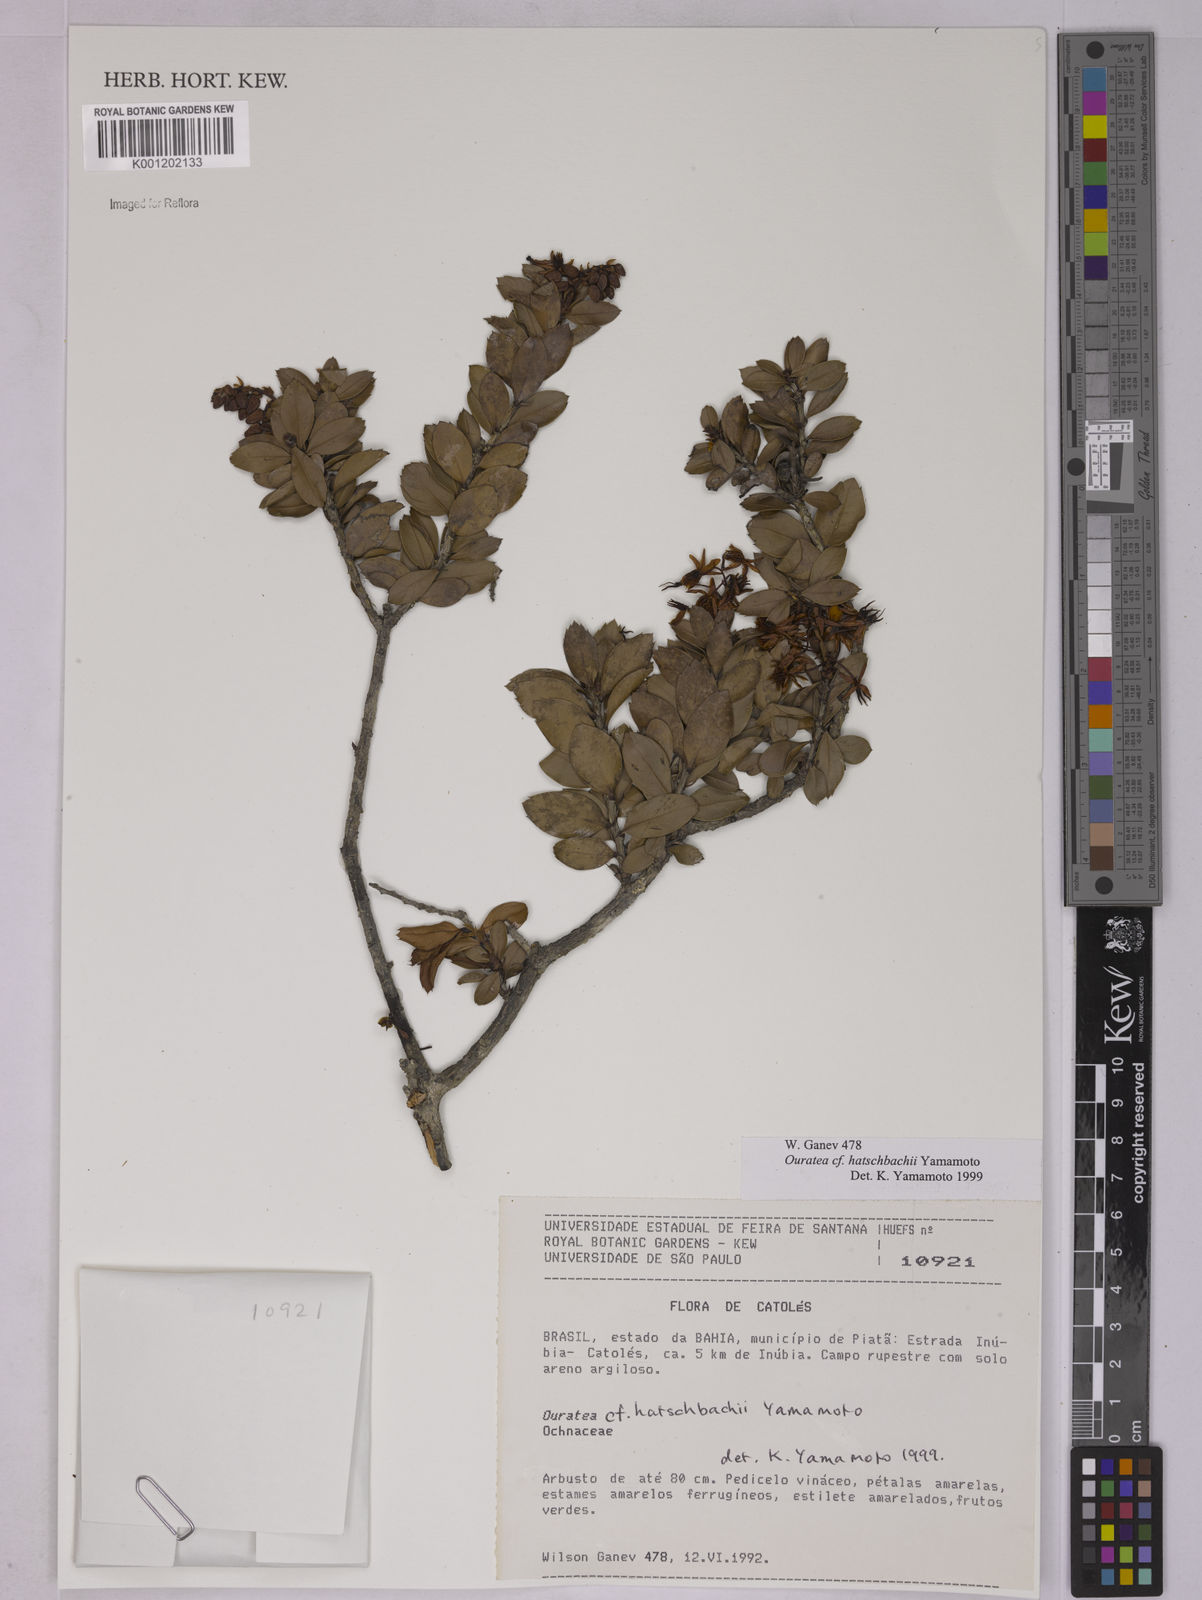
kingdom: Plantae
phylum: Tracheophyta
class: Magnoliopsida
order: Malpighiales
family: Ochnaceae
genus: Ouratea
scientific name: Ouratea hatschbachii
